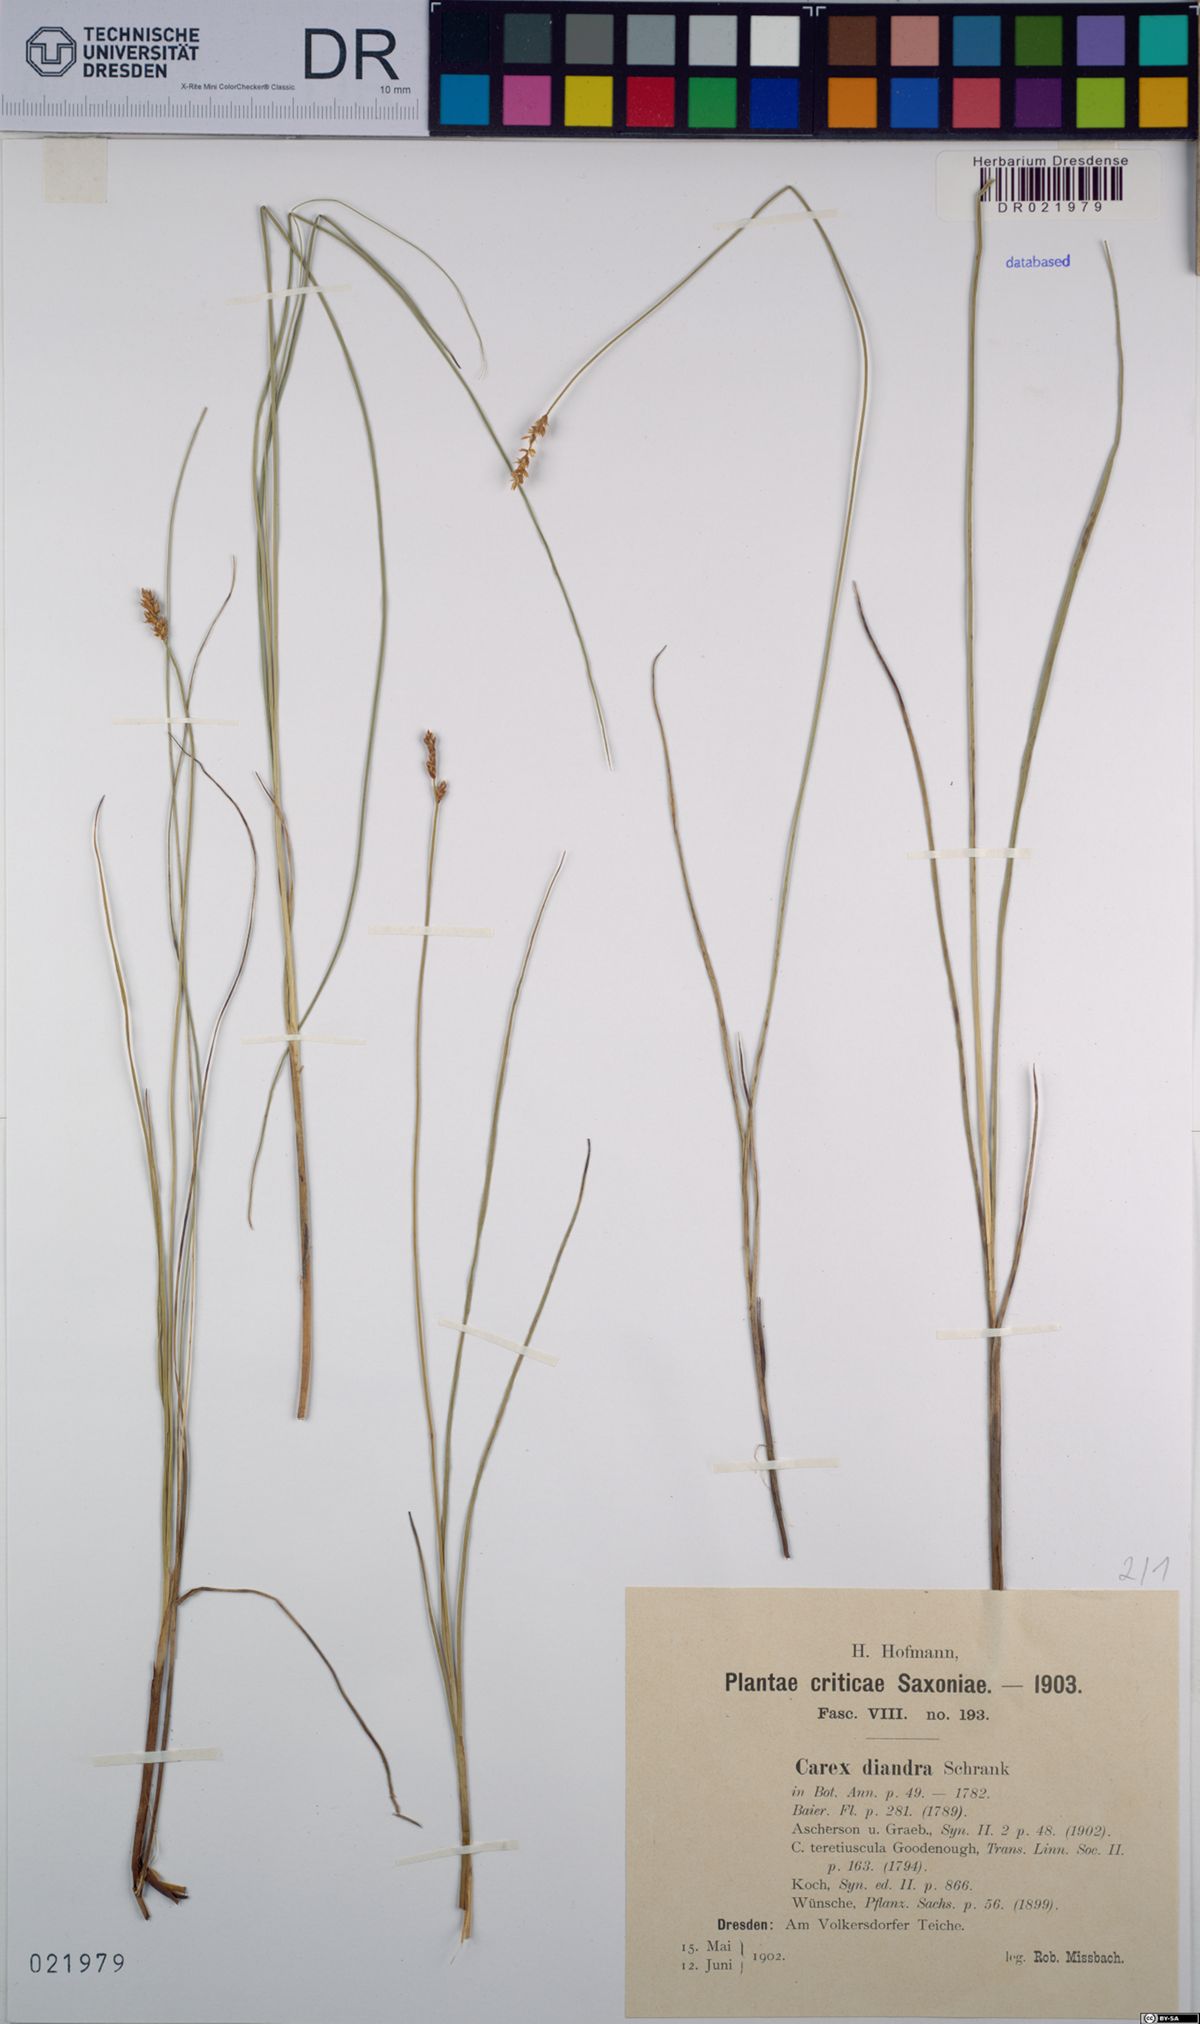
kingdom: Plantae
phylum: Tracheophyta
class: Liliopsida
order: Poales
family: Cyperaceae
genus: Carex
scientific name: Carex diandra
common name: Lesser tussock-sedge
